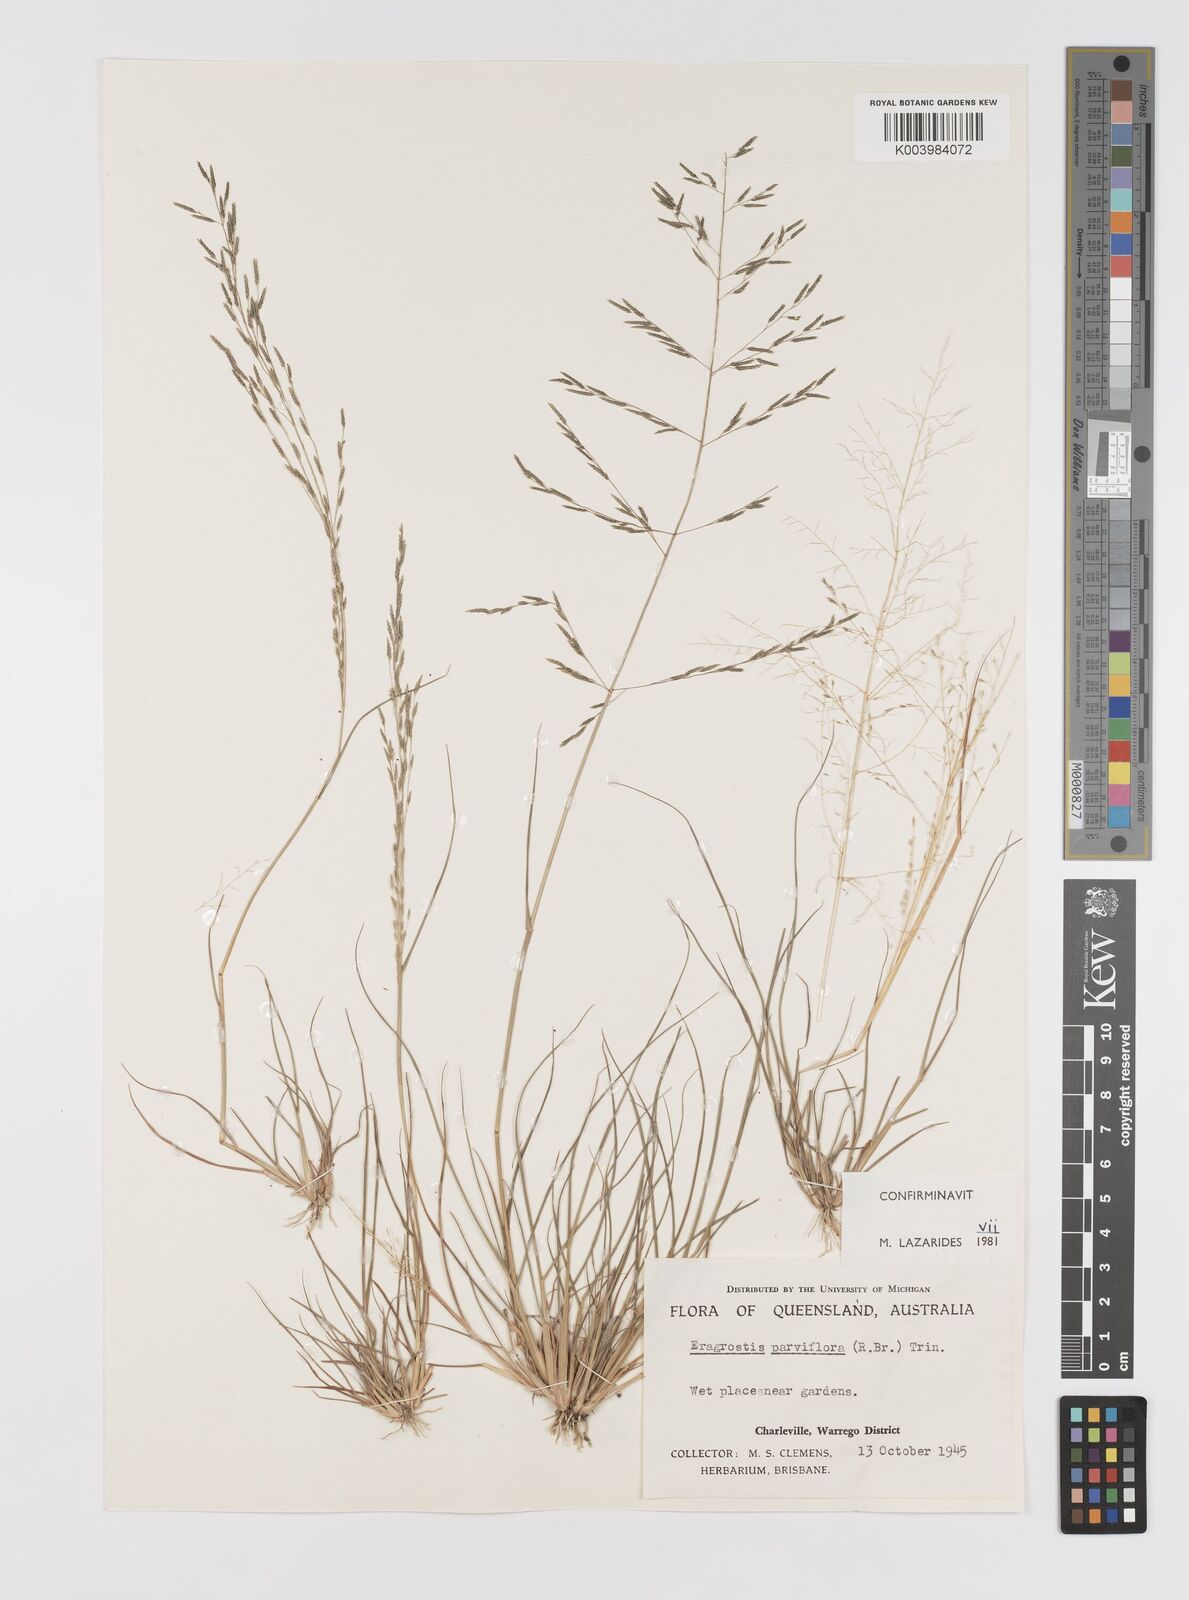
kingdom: Plantae
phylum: Tracheophyta
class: Liliopsida
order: Poales
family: Poaceae
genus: Eragrostis
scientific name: Eragrostis parviflora
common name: Weeping love-grass
